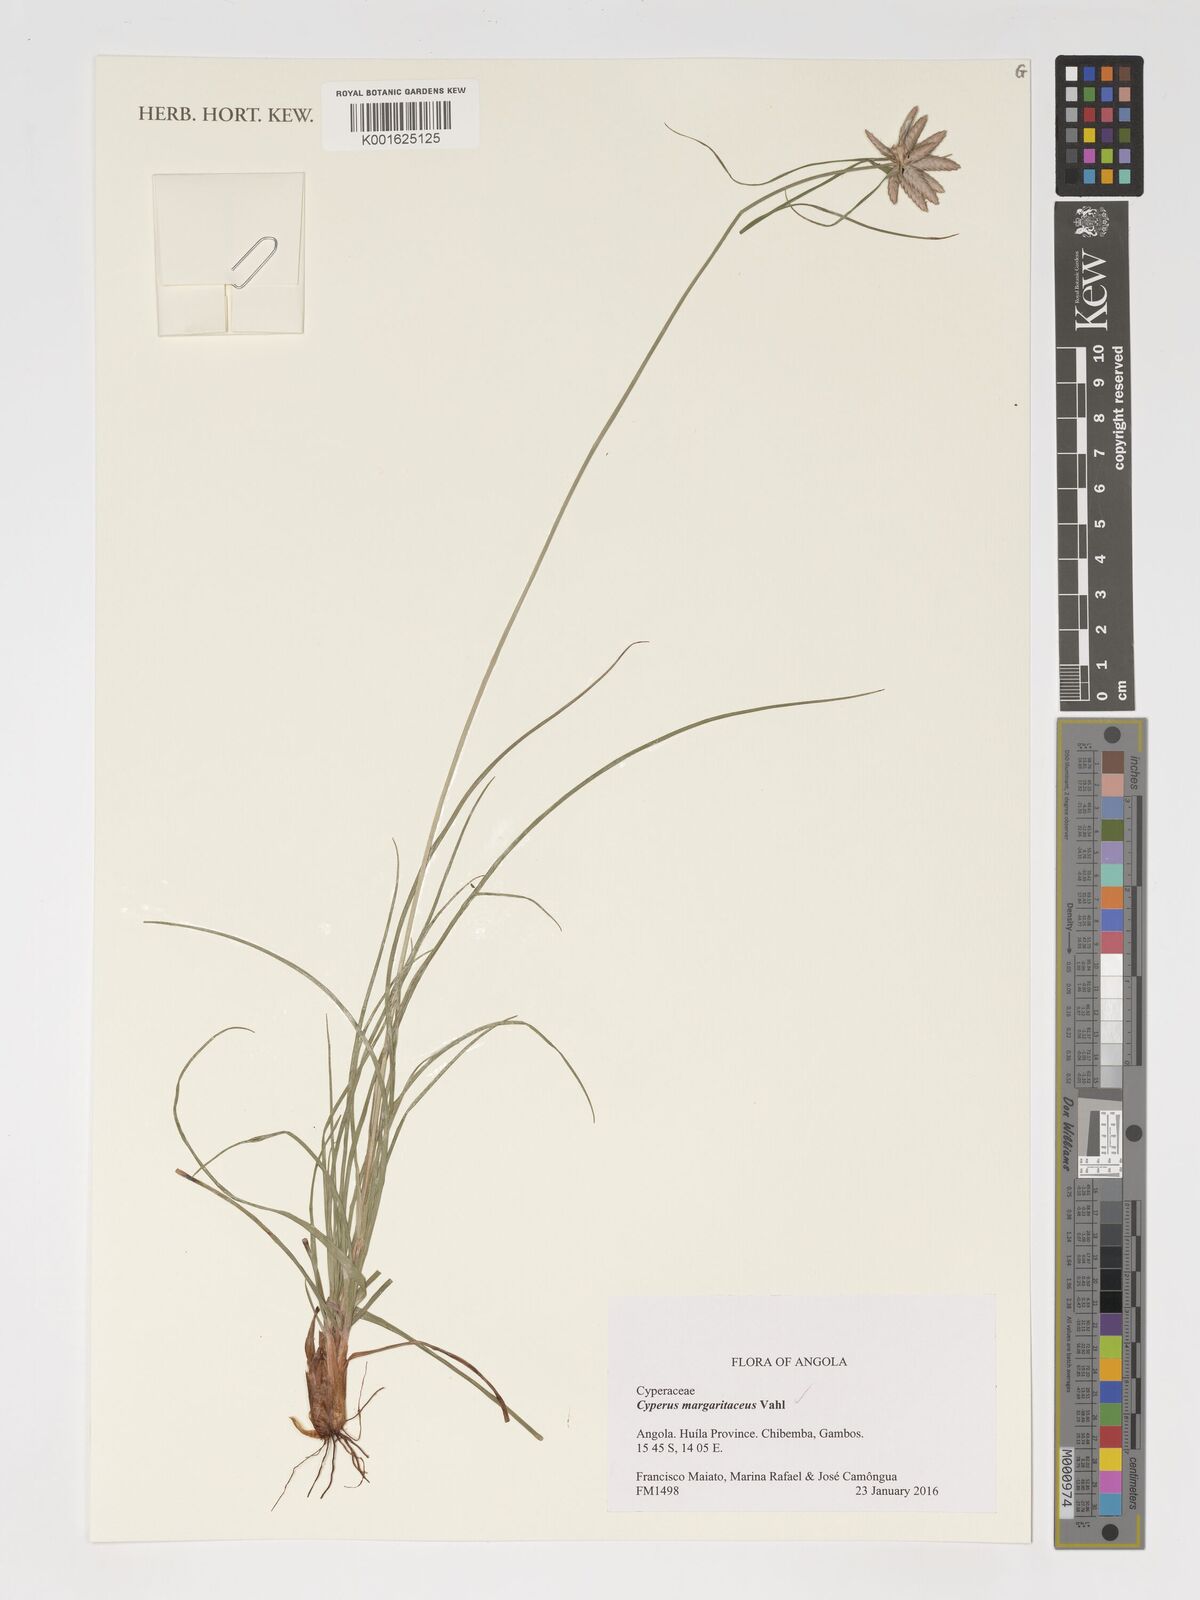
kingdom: Plantae
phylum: Tracheophyta
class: Liliopsida
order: Poales
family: Cyperaceae
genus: Cyperus
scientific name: Cyperus margaritaceus
